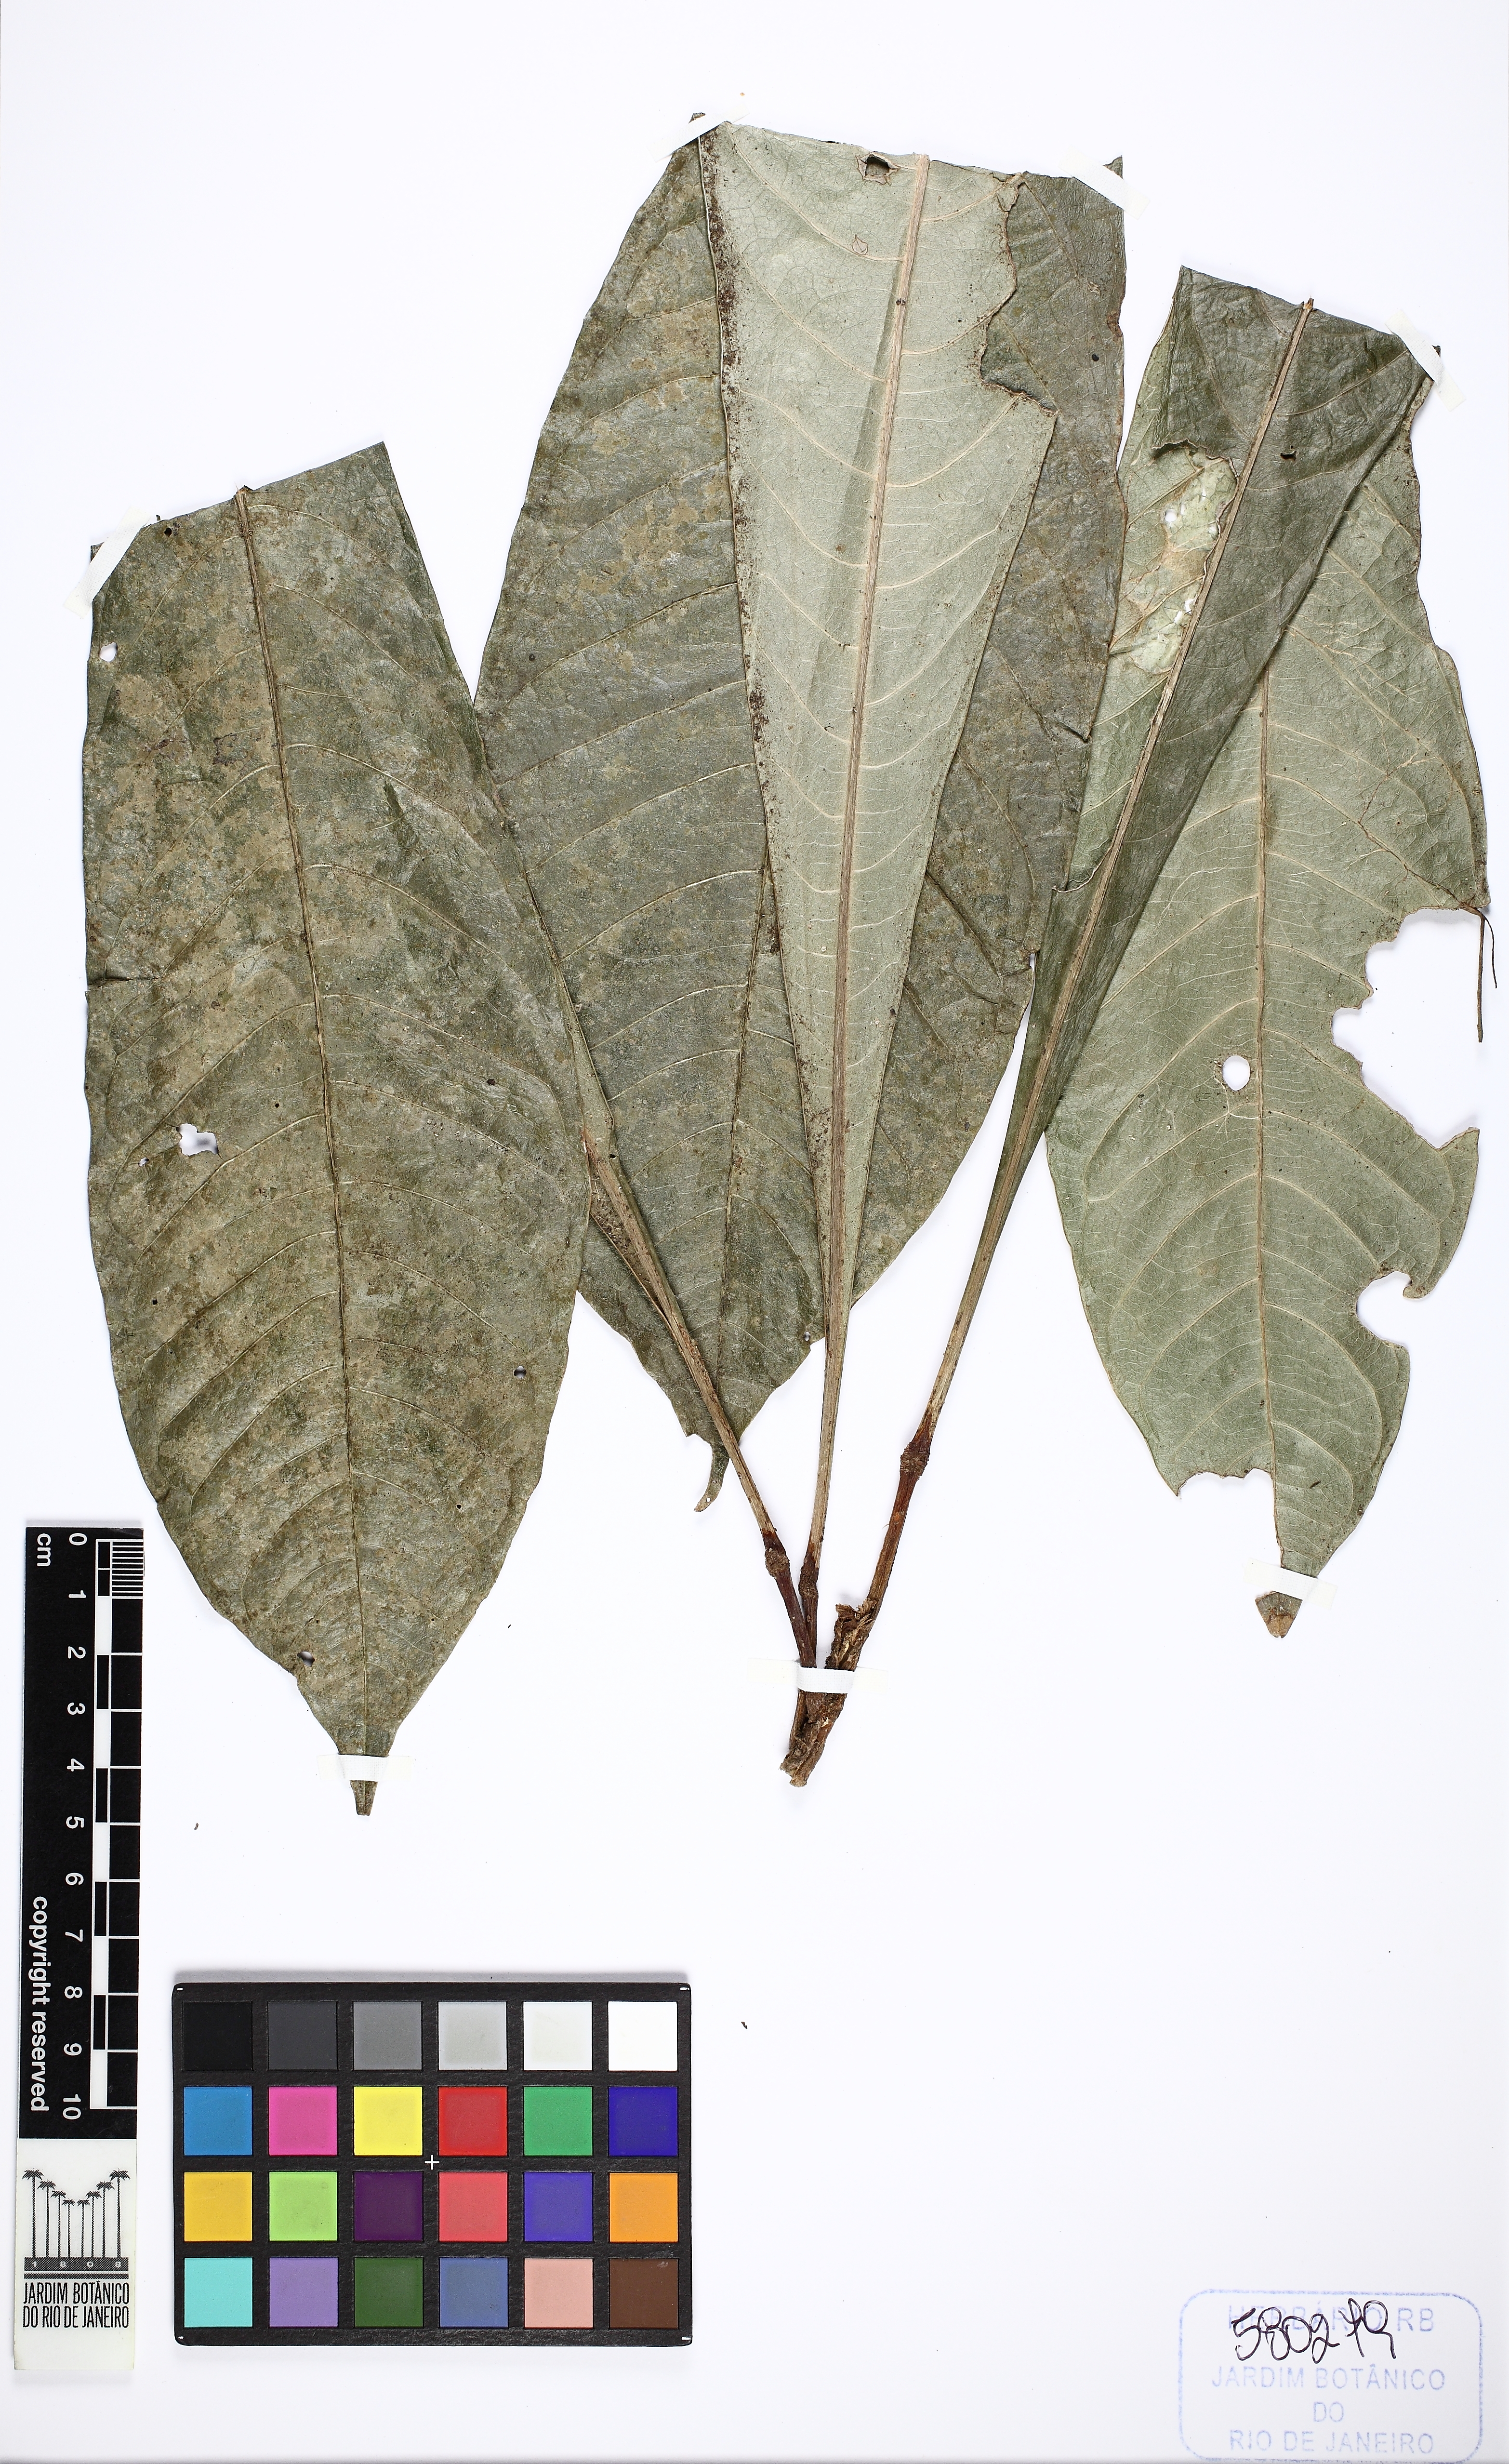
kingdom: Plantae
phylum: Tracheophyta
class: Magnoliopsida
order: Sapindales
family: Rutaceae
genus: Erythrochiton
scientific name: Erythrochiton brasiliensis
